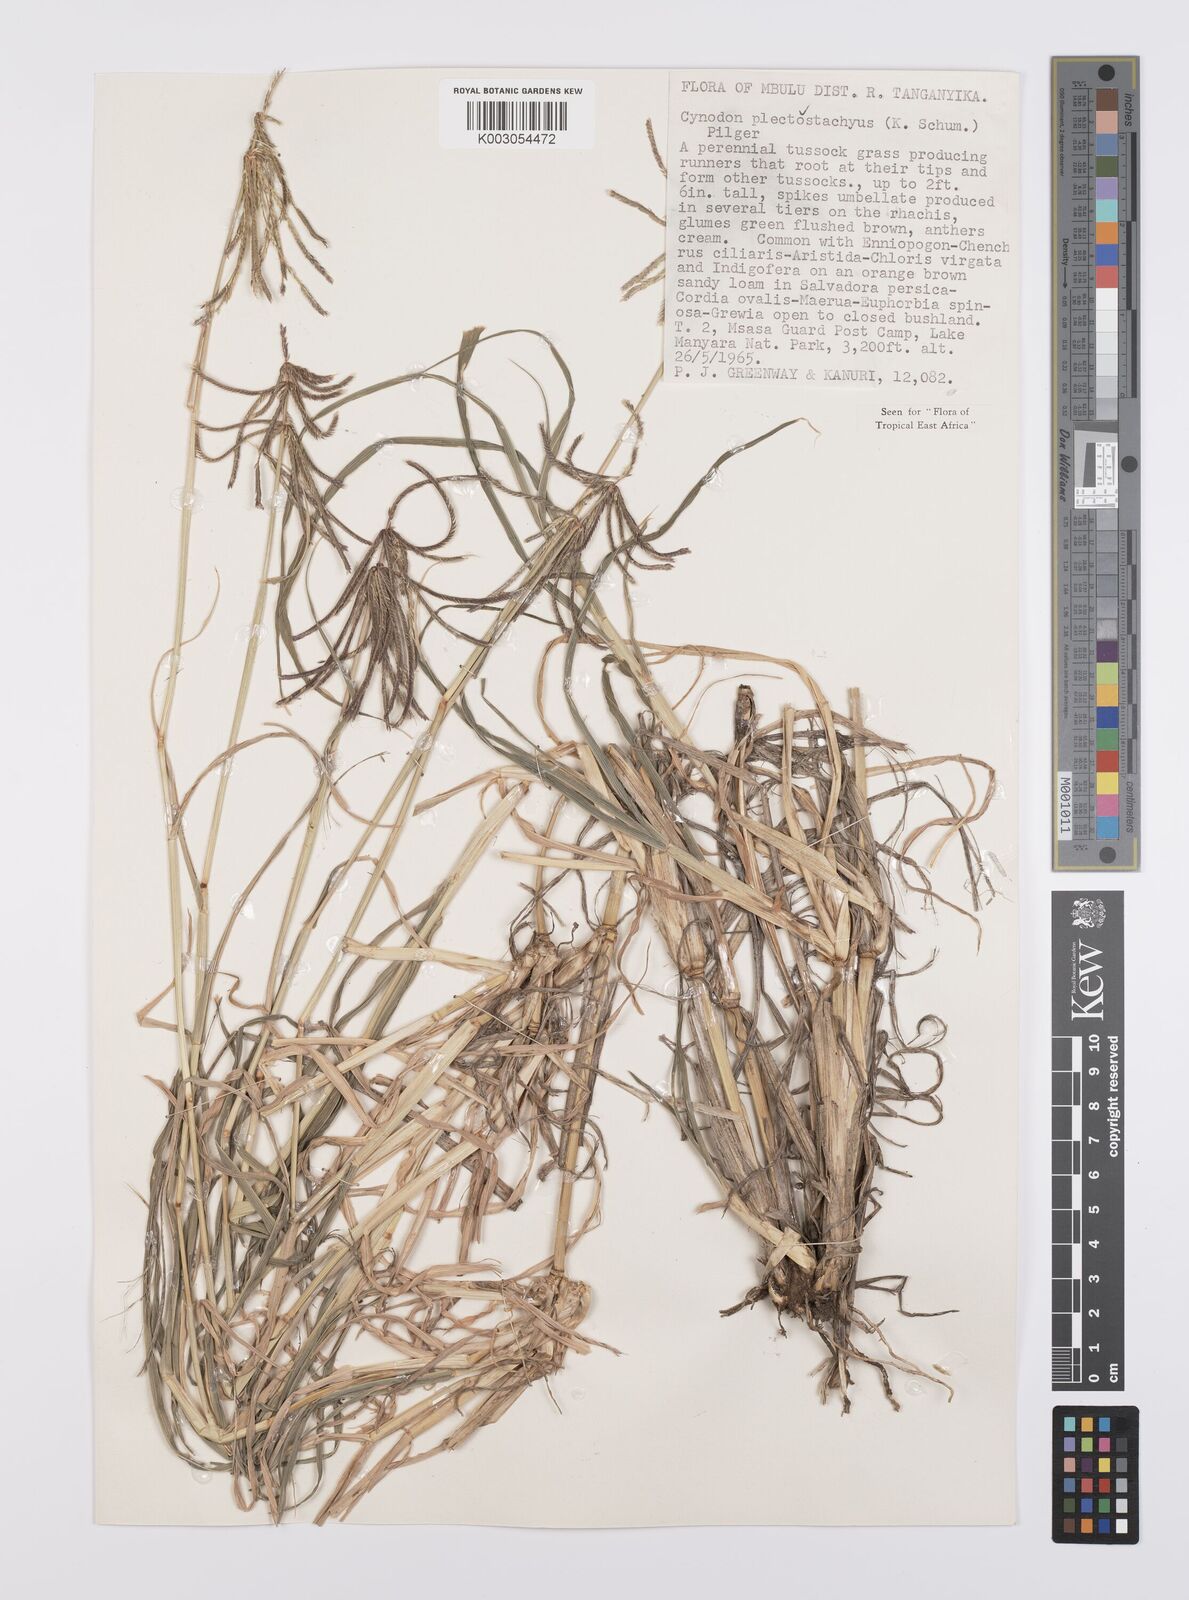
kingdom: Plantae
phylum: Tracheophyta
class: Liliopsida
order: Poales
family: Poaceae
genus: Cynodon
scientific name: Cynodon plectostachyus
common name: Stargrass
